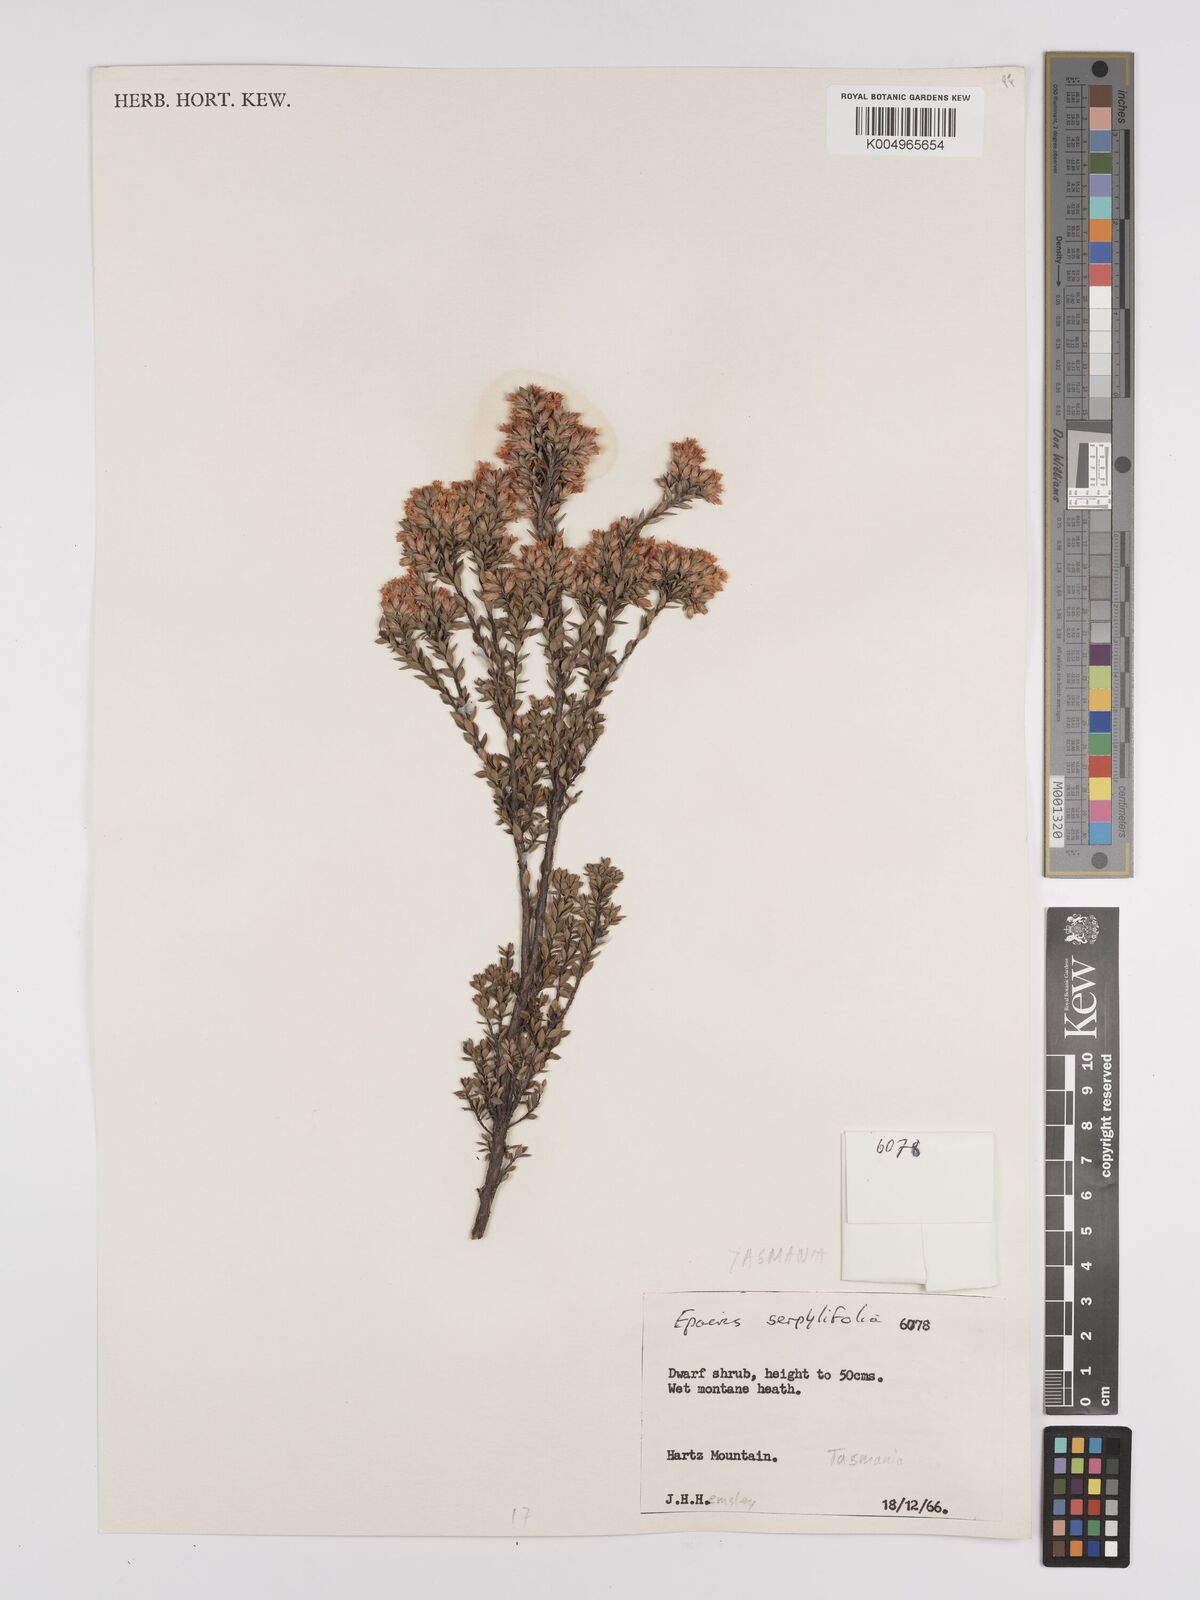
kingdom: Plantae
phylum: Tracheophyta
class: Magnoliopsida
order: Ericales
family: Ericaceae
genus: Epacris
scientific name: Epacris serpyllifolia
